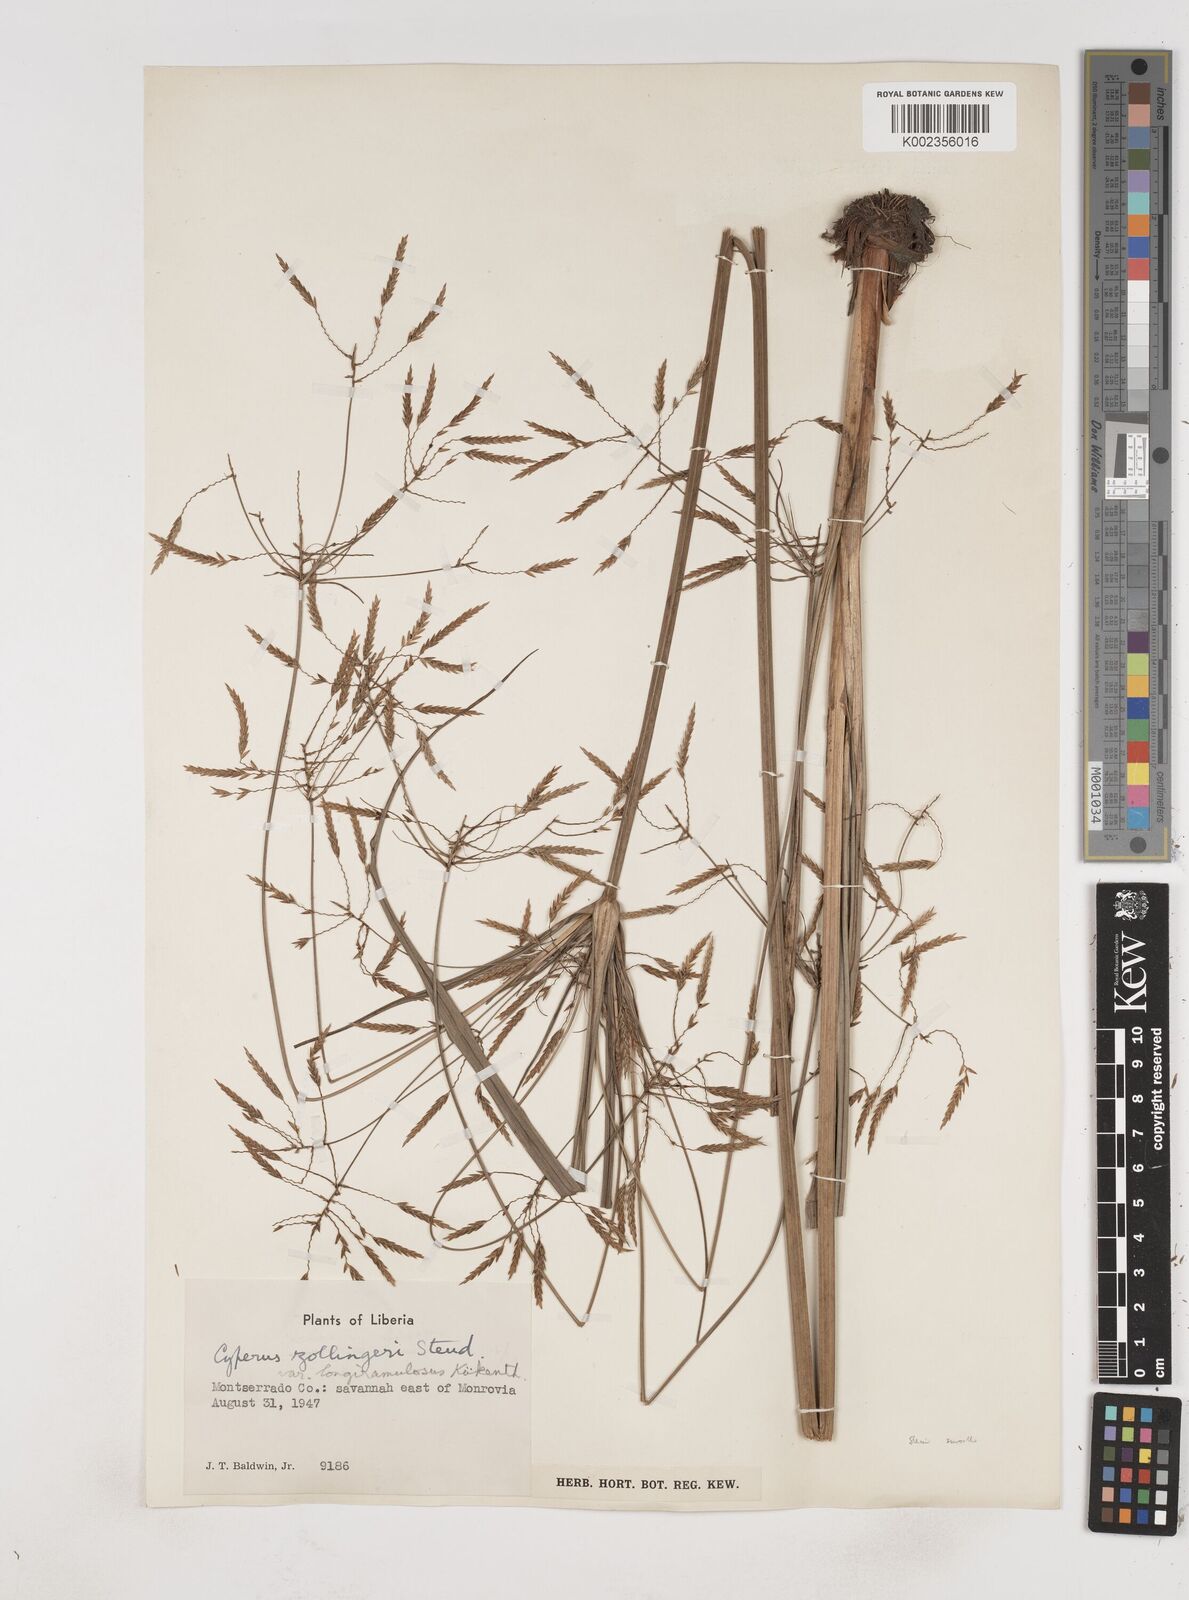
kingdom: Plantae
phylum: Tracheophyta
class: Liliopsida
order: Poales
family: Cyperaceae
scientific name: Cyperaceae
